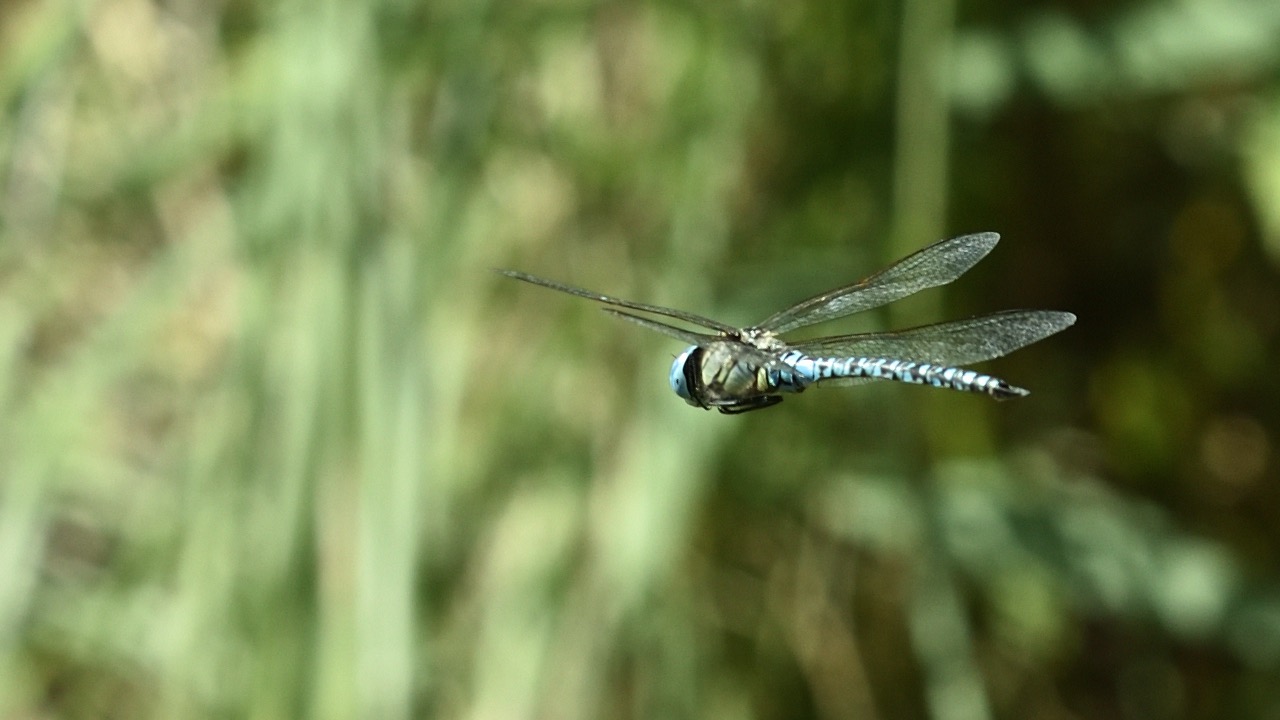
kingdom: Animalia
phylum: Arthropoda
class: Insecta
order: Odonata
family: Aeshnidae
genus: Aeshna
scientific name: Aeshna affinis
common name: Sydlig mosaikguldsmed
